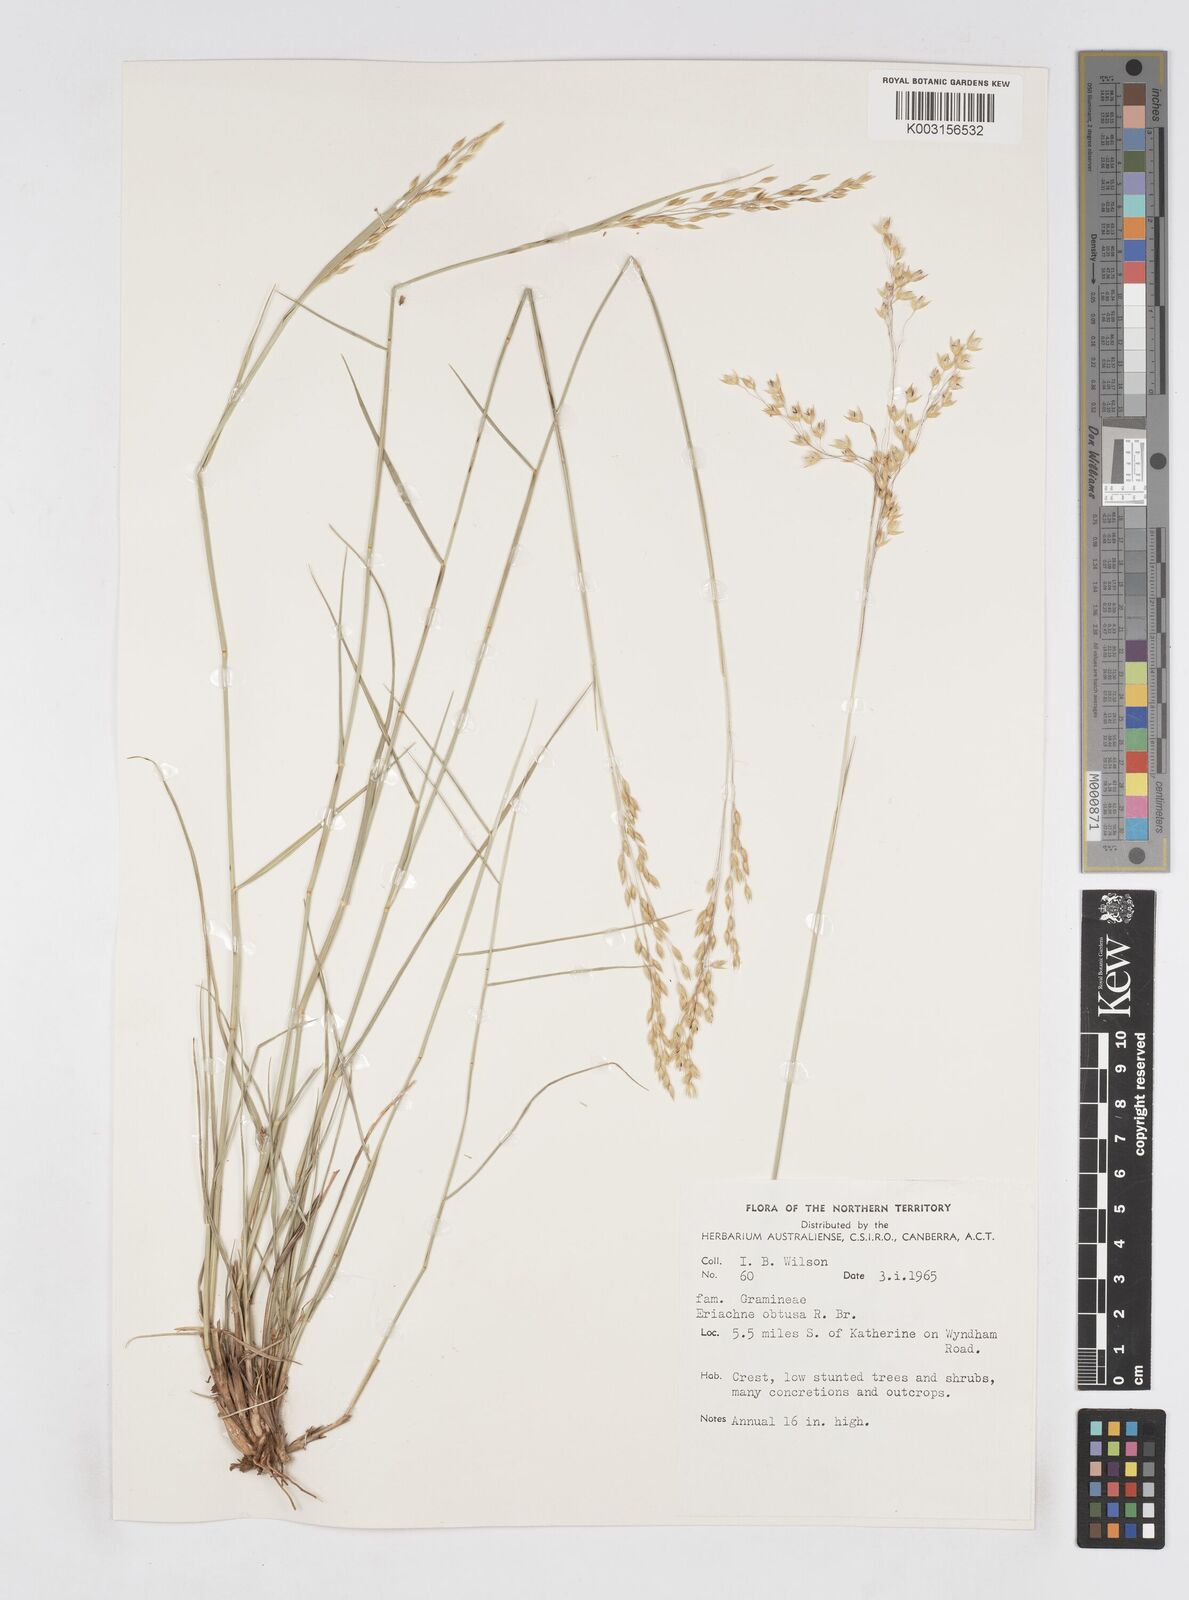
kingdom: Plantae
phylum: Tracheophyta
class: Liliopsida
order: Poales
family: Poaceae
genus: Eriachne
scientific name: Eriachne obtusa
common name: Northern wanderrie grass
